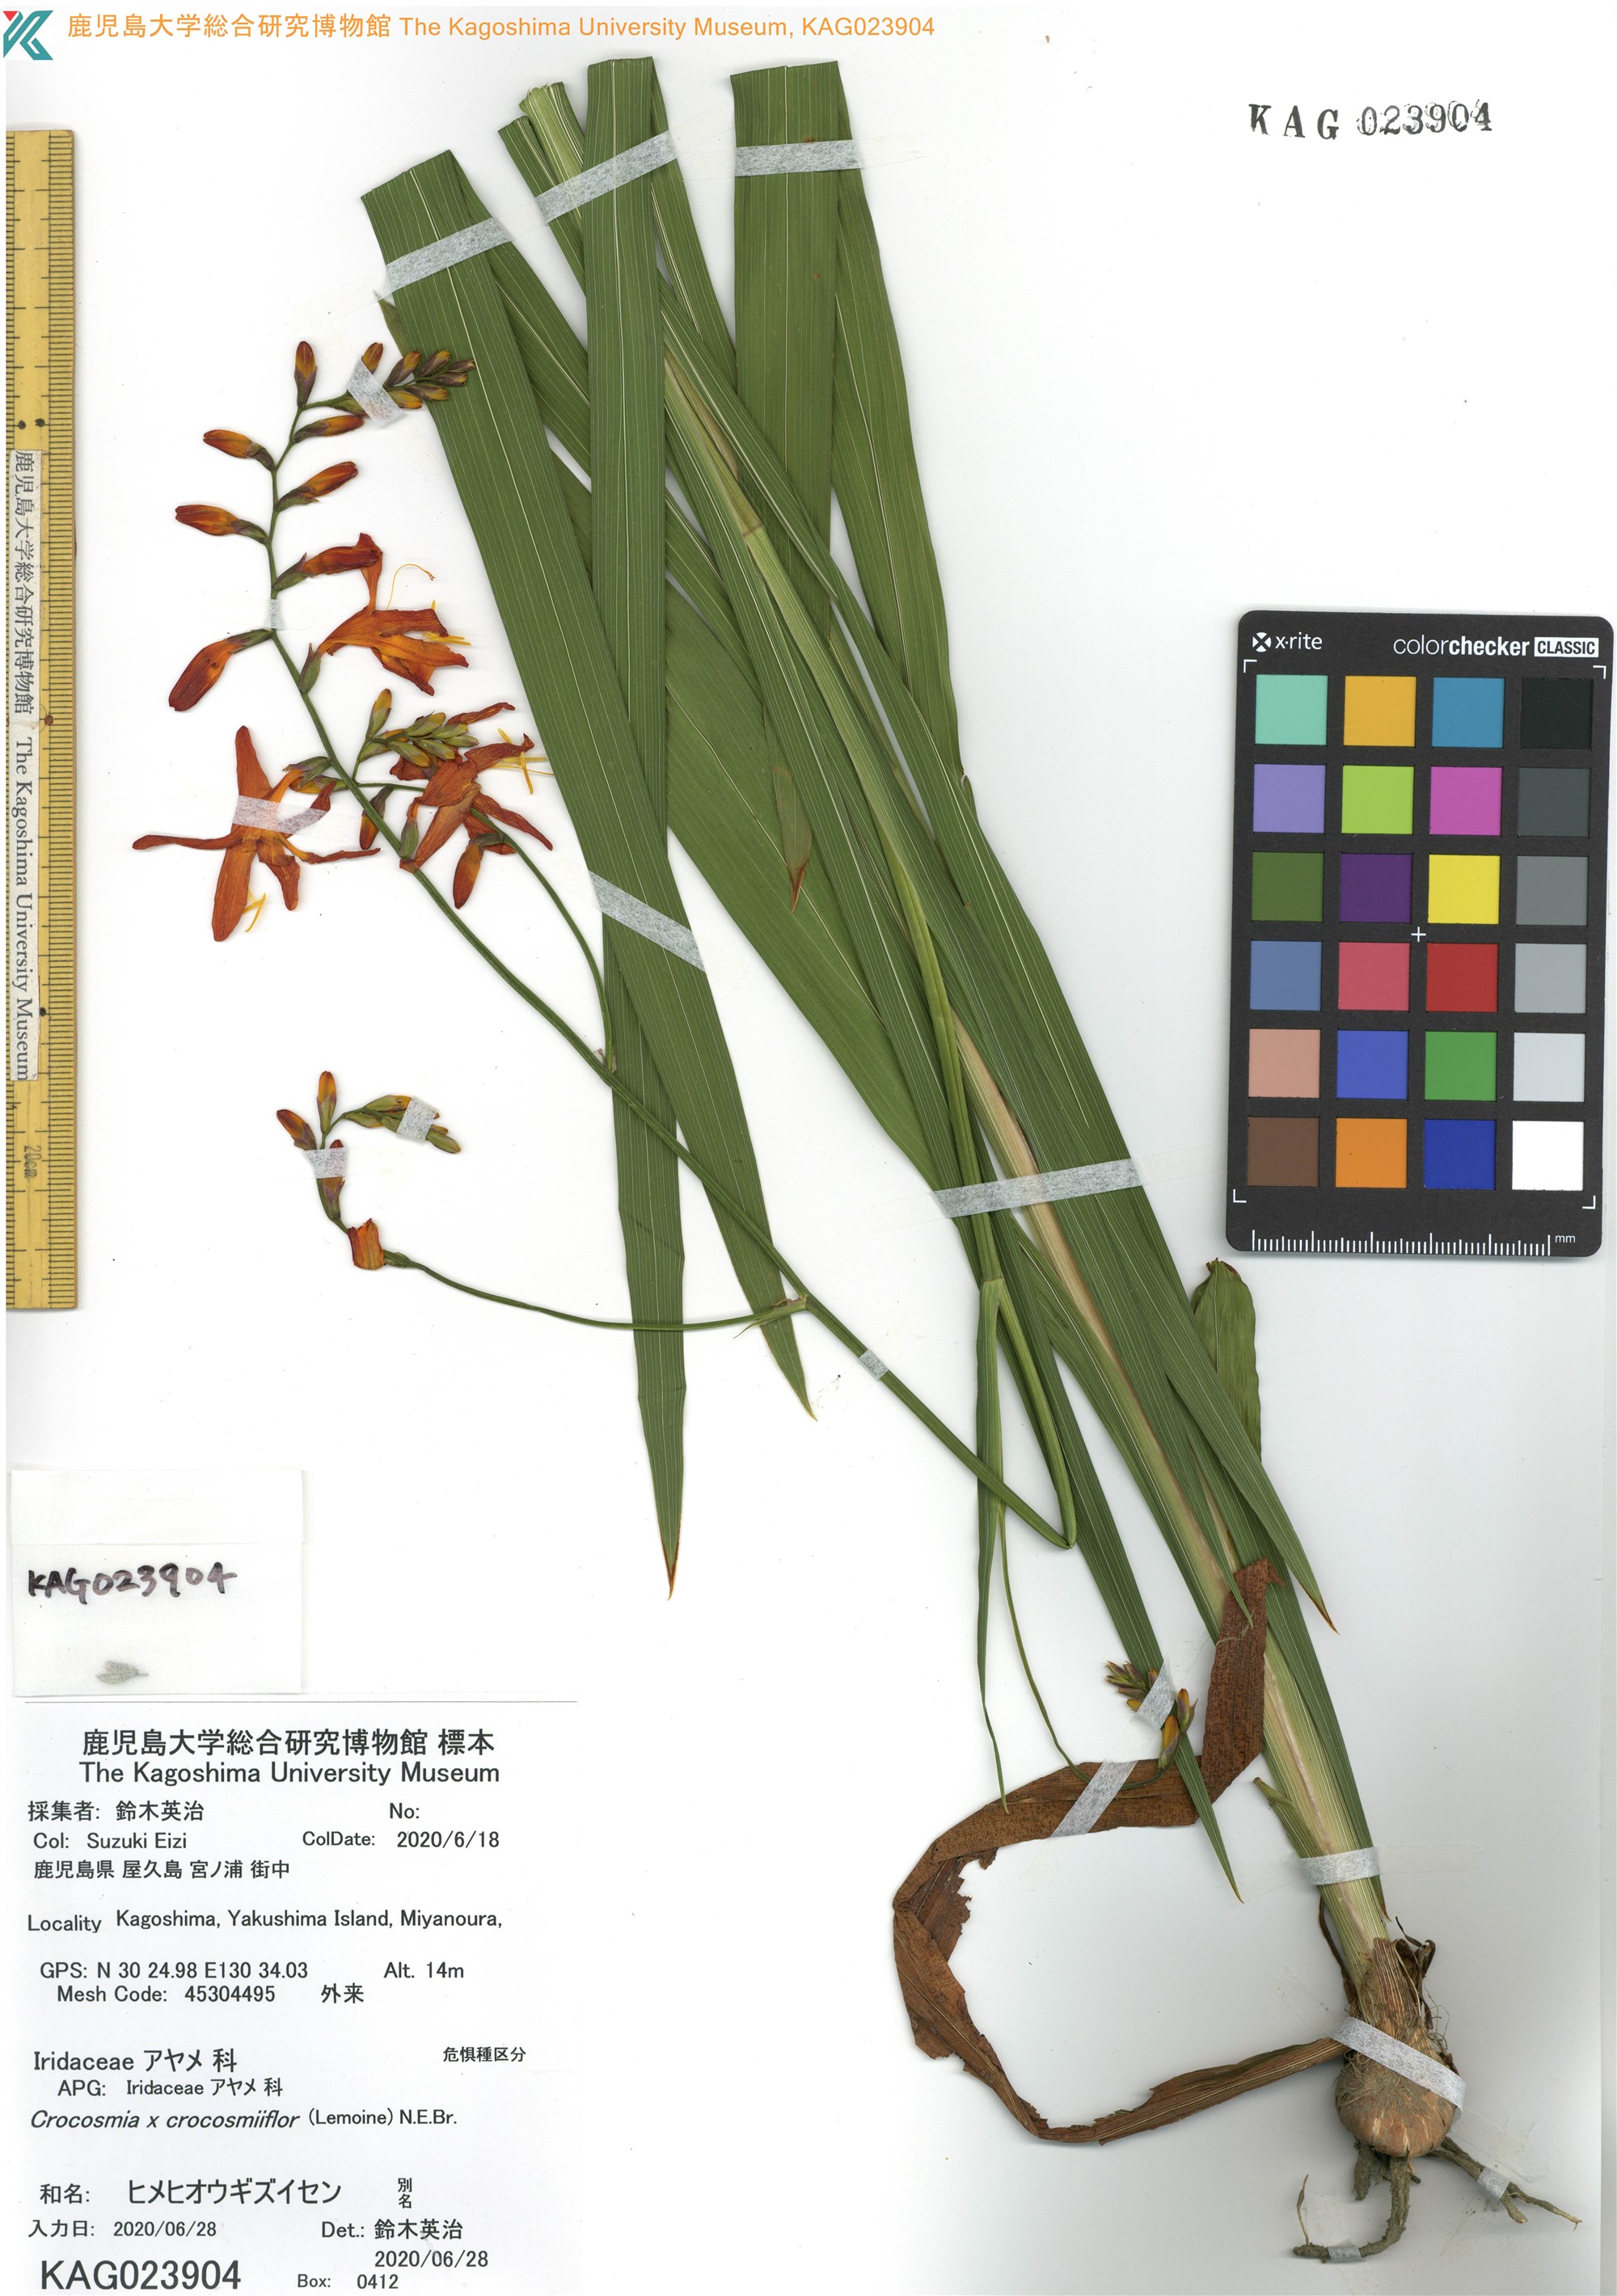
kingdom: Plantae
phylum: Tracheophyta
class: Liliopsida
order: Asparagales
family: Iridaceae
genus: Crocosmia
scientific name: Crocosmia crocosmiiflora
